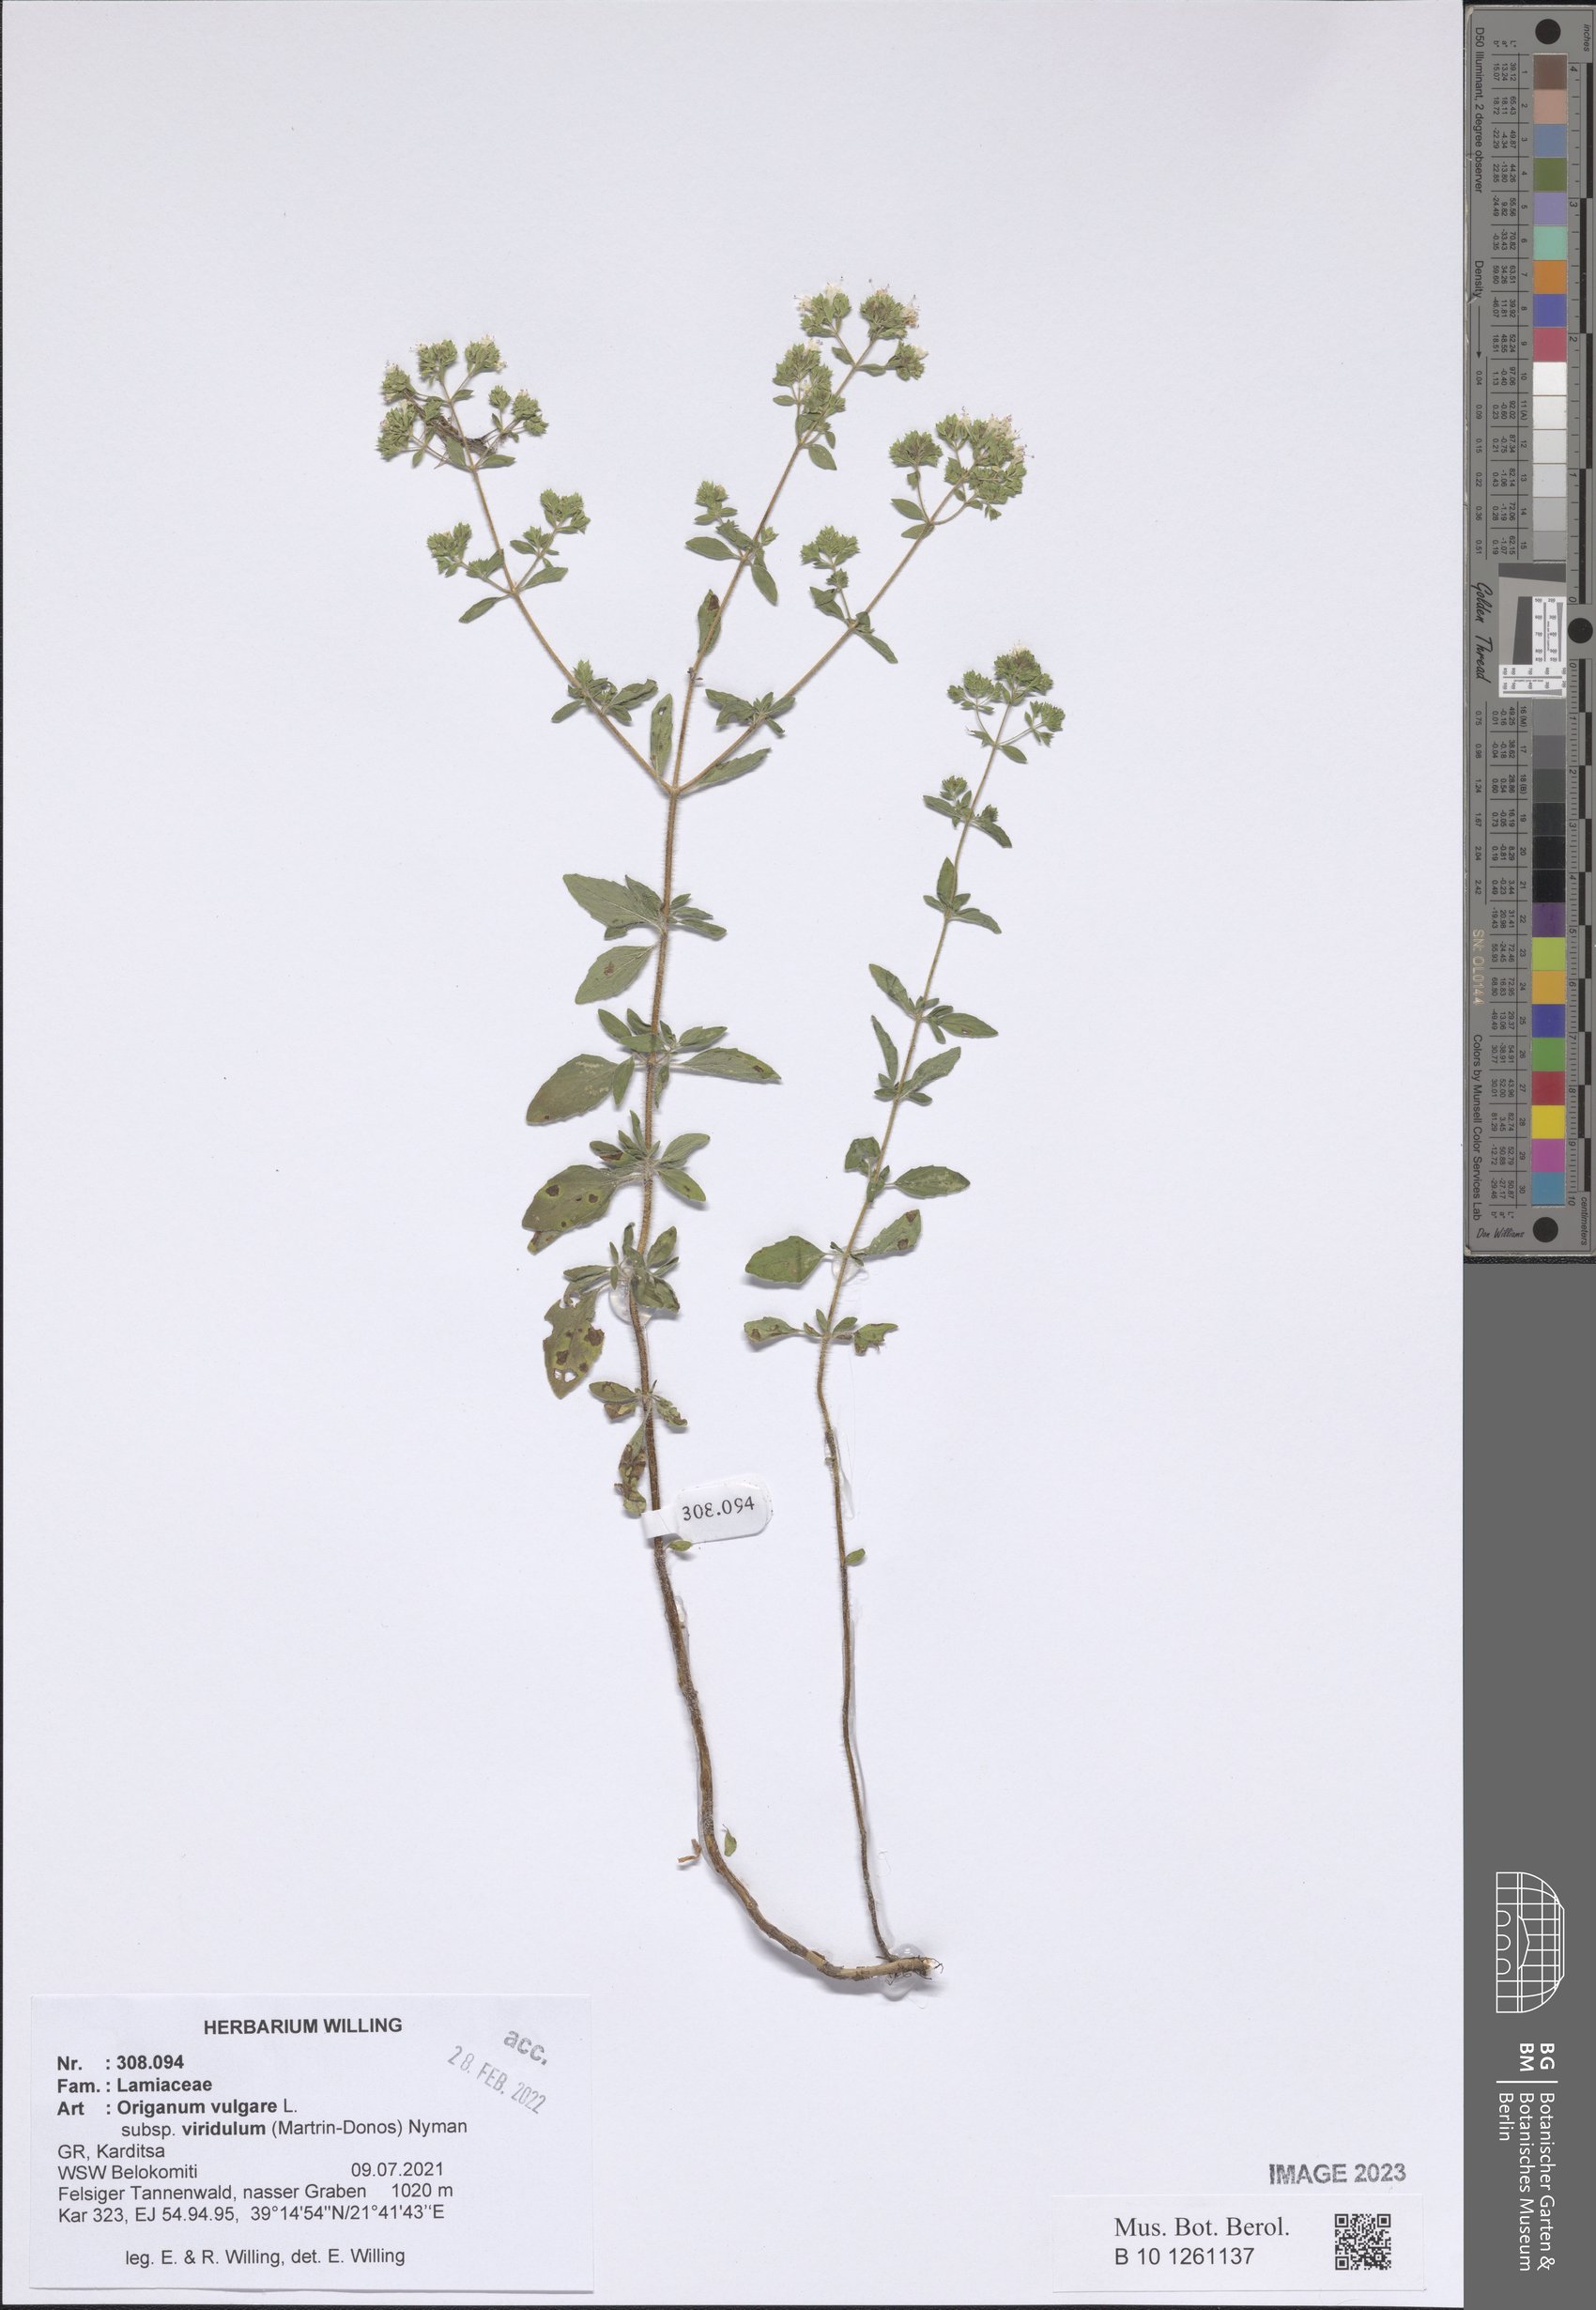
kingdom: Plantae
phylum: Tracheophyta
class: Magnoliopsida
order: Lamiales
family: Lamiaceae
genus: Origanum
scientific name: Origanum vulgare
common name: Wild marjoram
